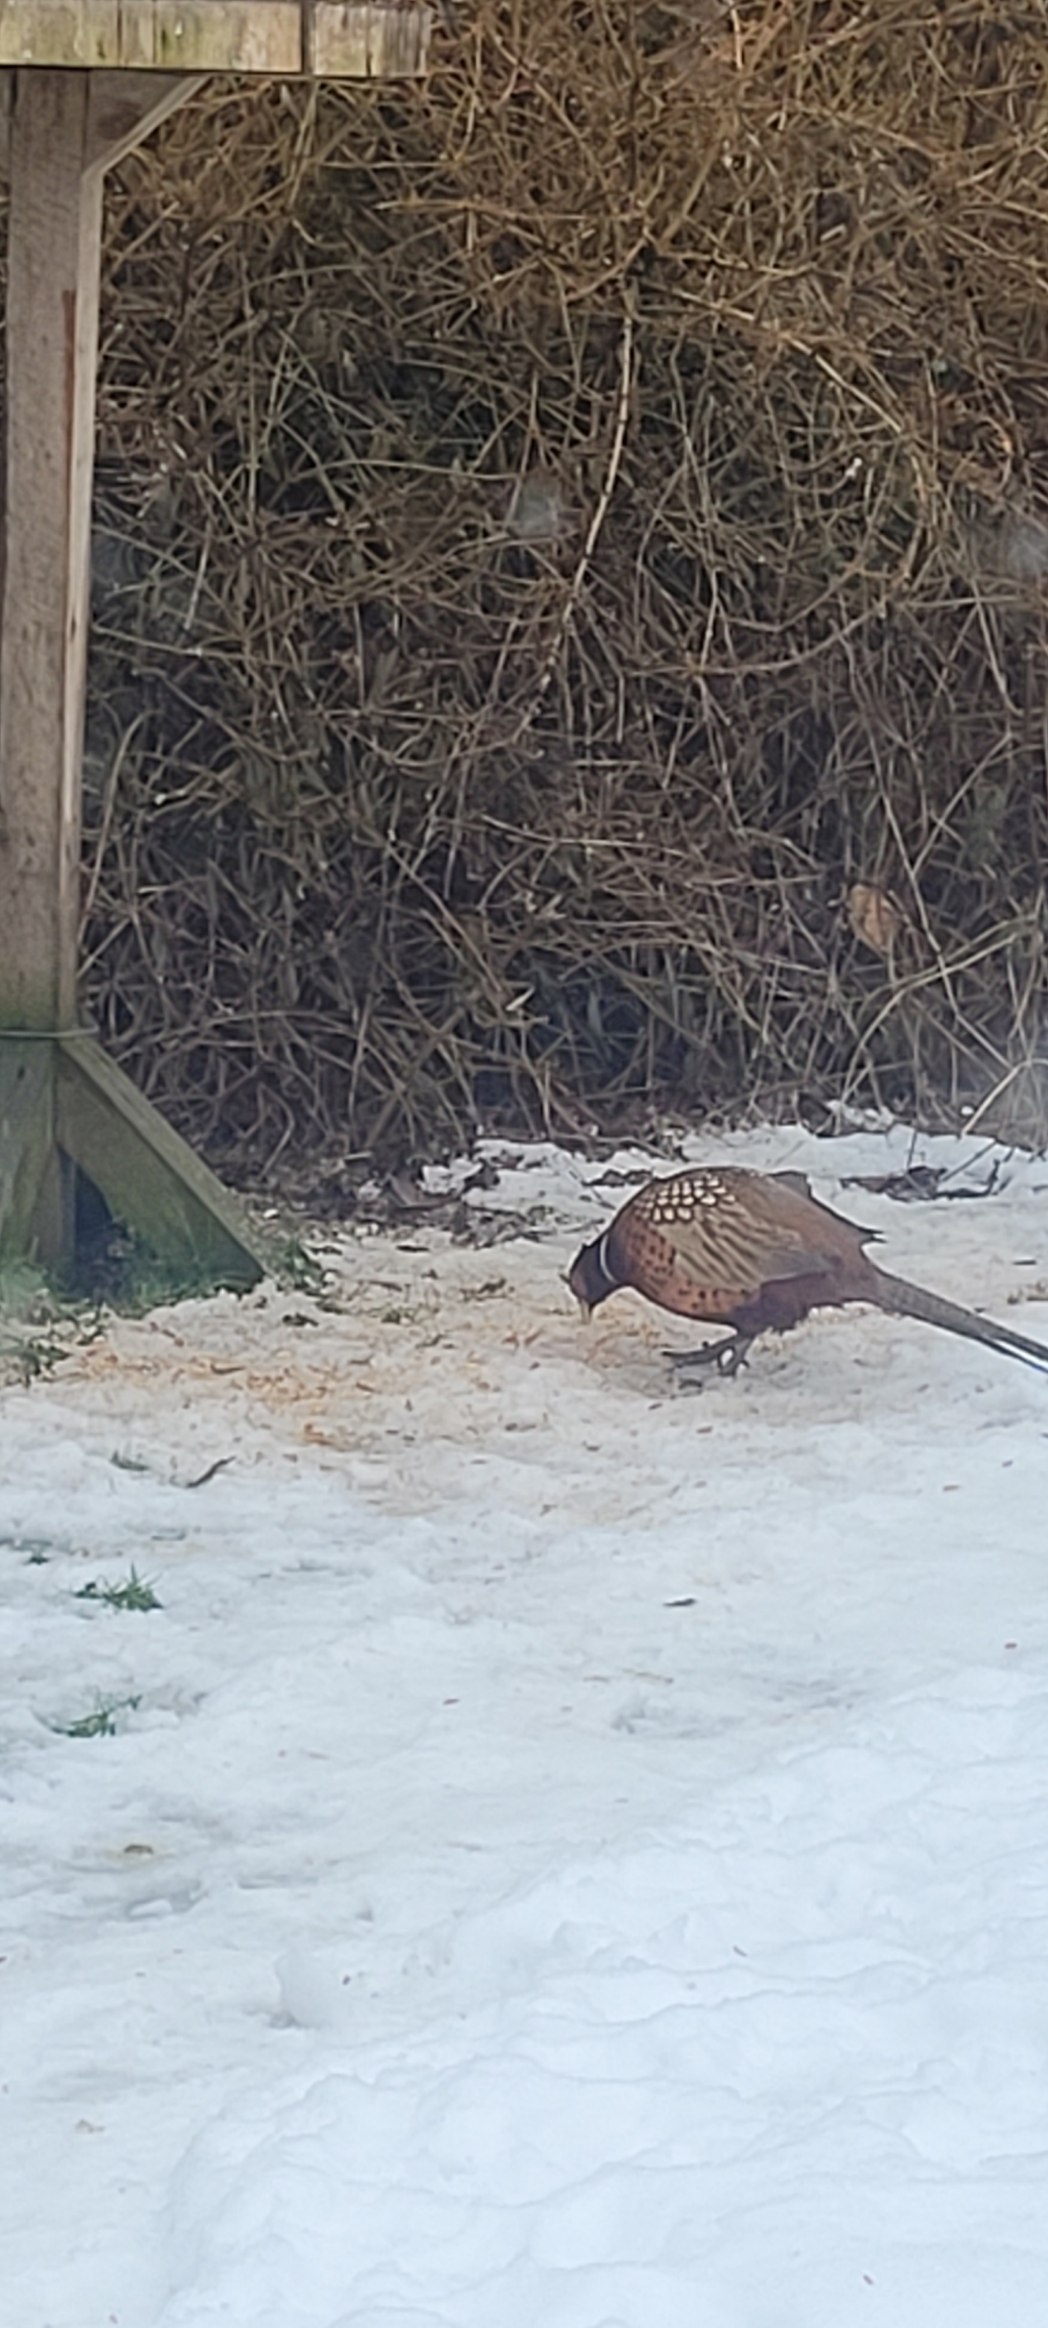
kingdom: Animalia
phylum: Chordata
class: Aves
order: Galliformes
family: Phasianidae
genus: Phasianus
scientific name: Phasianus colchicus
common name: Fasan
